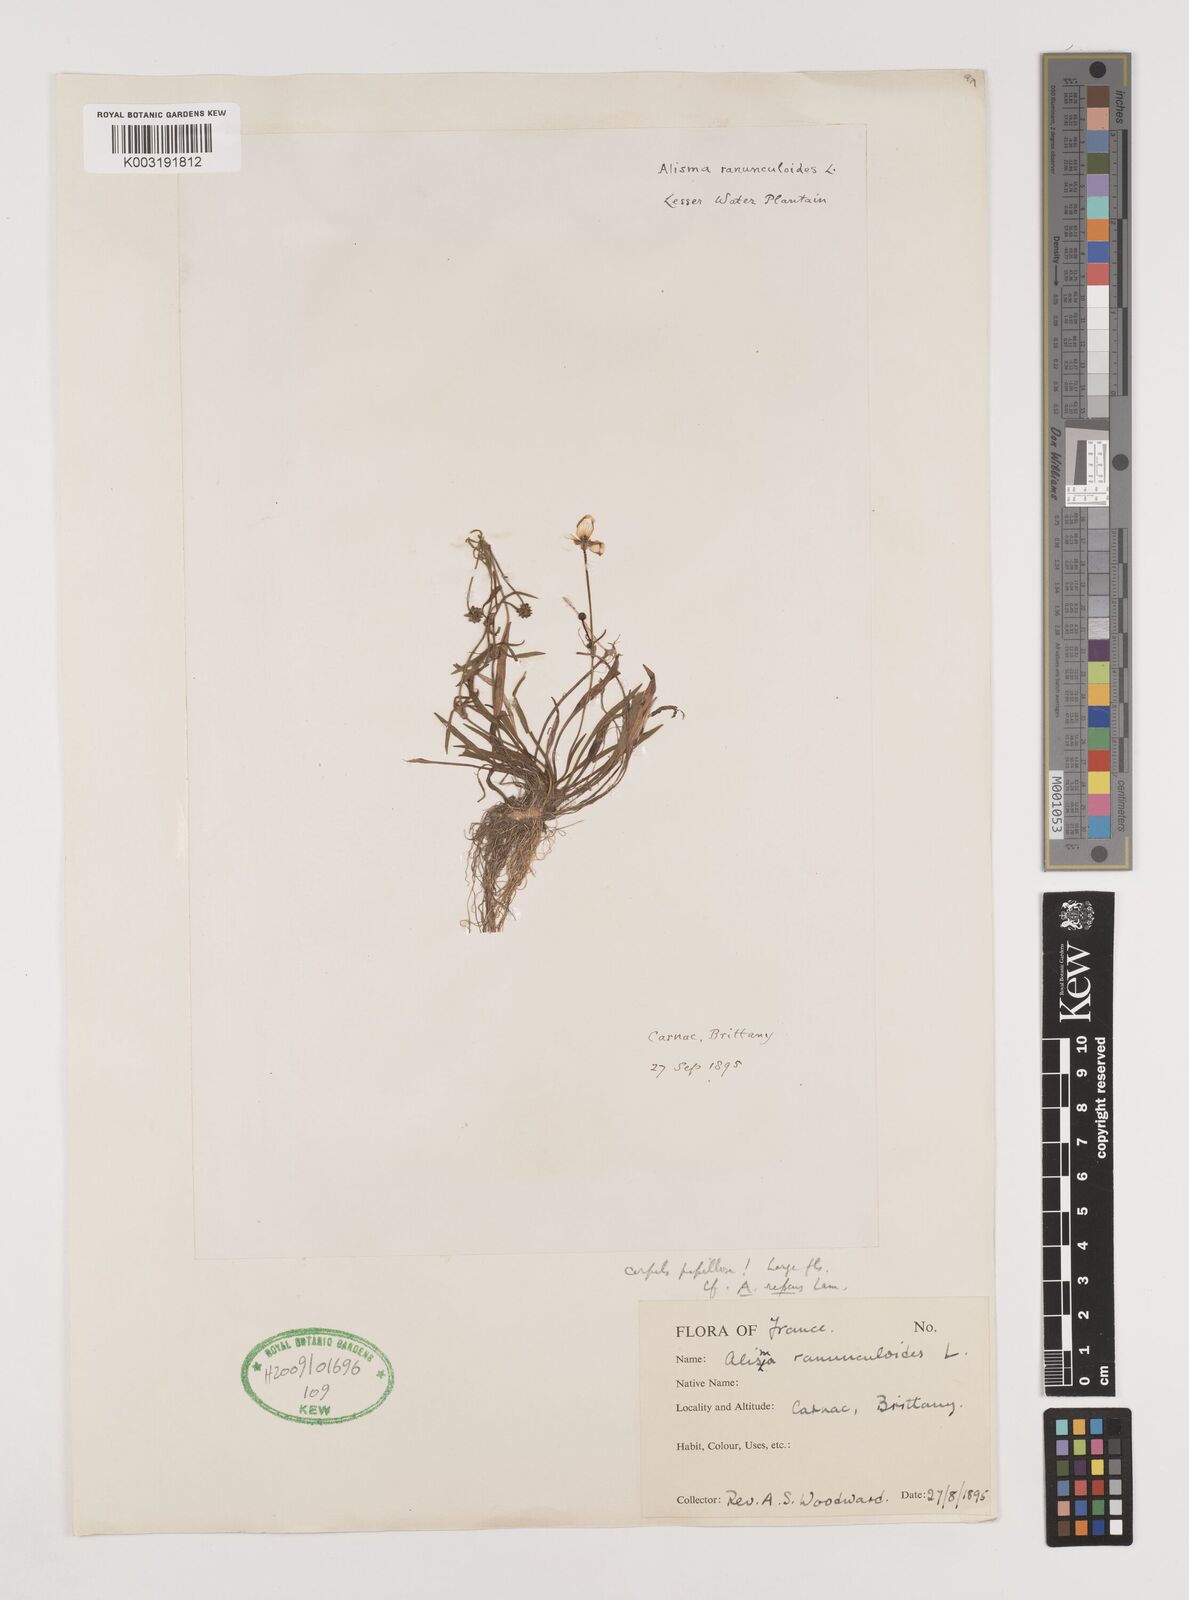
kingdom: Plantae
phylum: Tracheophyta
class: Liliopsida
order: Alismatales
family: Alismataceae
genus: Baldellia
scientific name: Baldellia ranunculoides
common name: Lesser water-plantain
